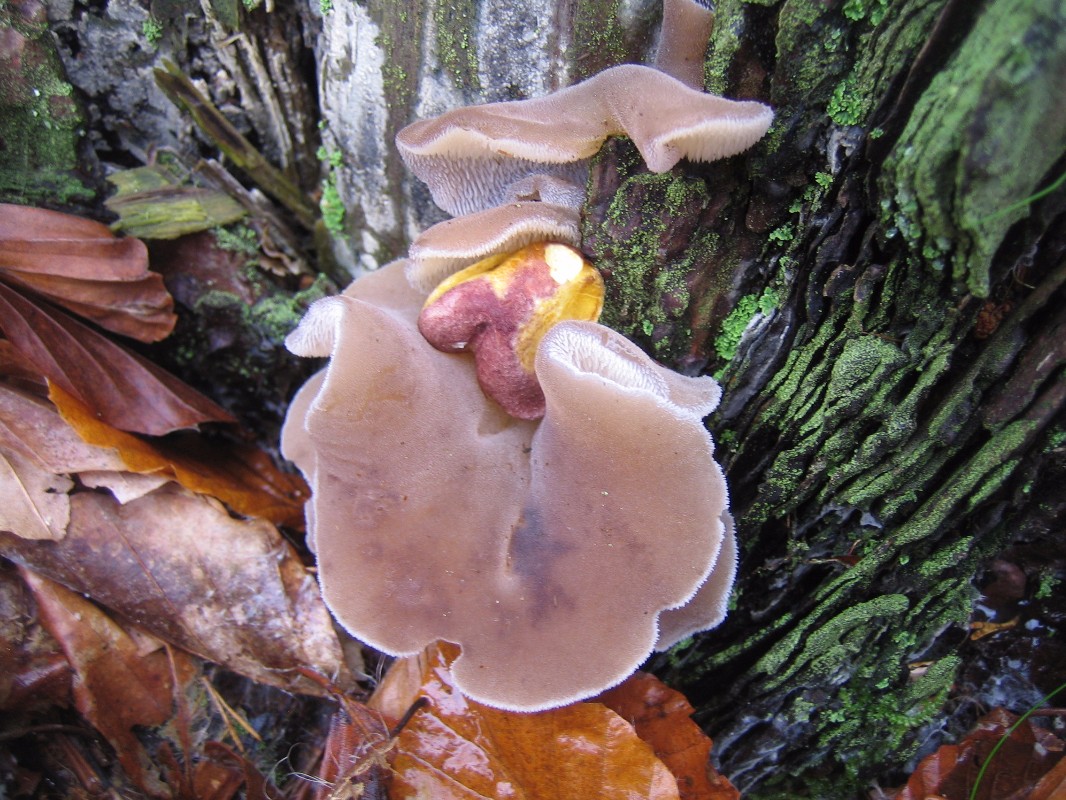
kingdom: Fungi
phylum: Basidiomycota
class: Tremellomycetes
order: Tremellales
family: Exidiaceae
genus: Pseudohydnum
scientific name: Pseudohydnum
